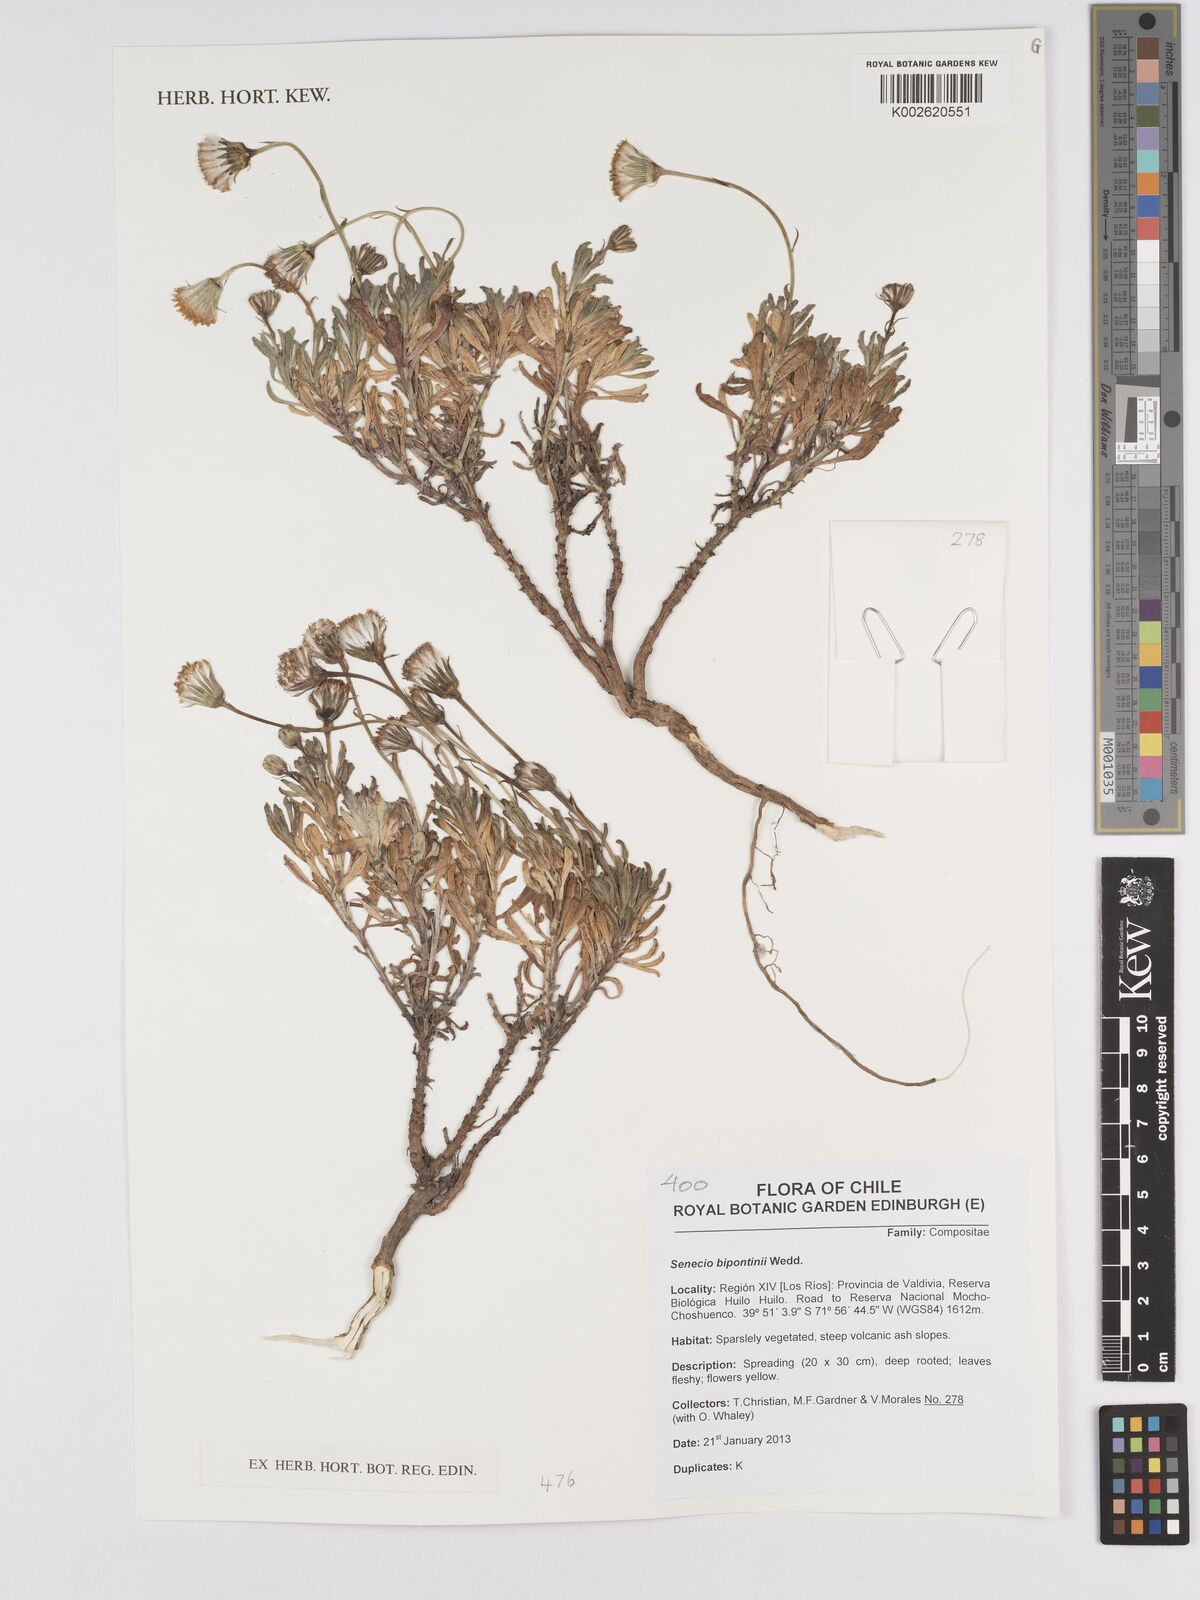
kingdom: Plantae
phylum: Tracheophyta
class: Magnoliopsida
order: Asterales
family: Asteraceae
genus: Senecio
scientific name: Senecio bipontinii
